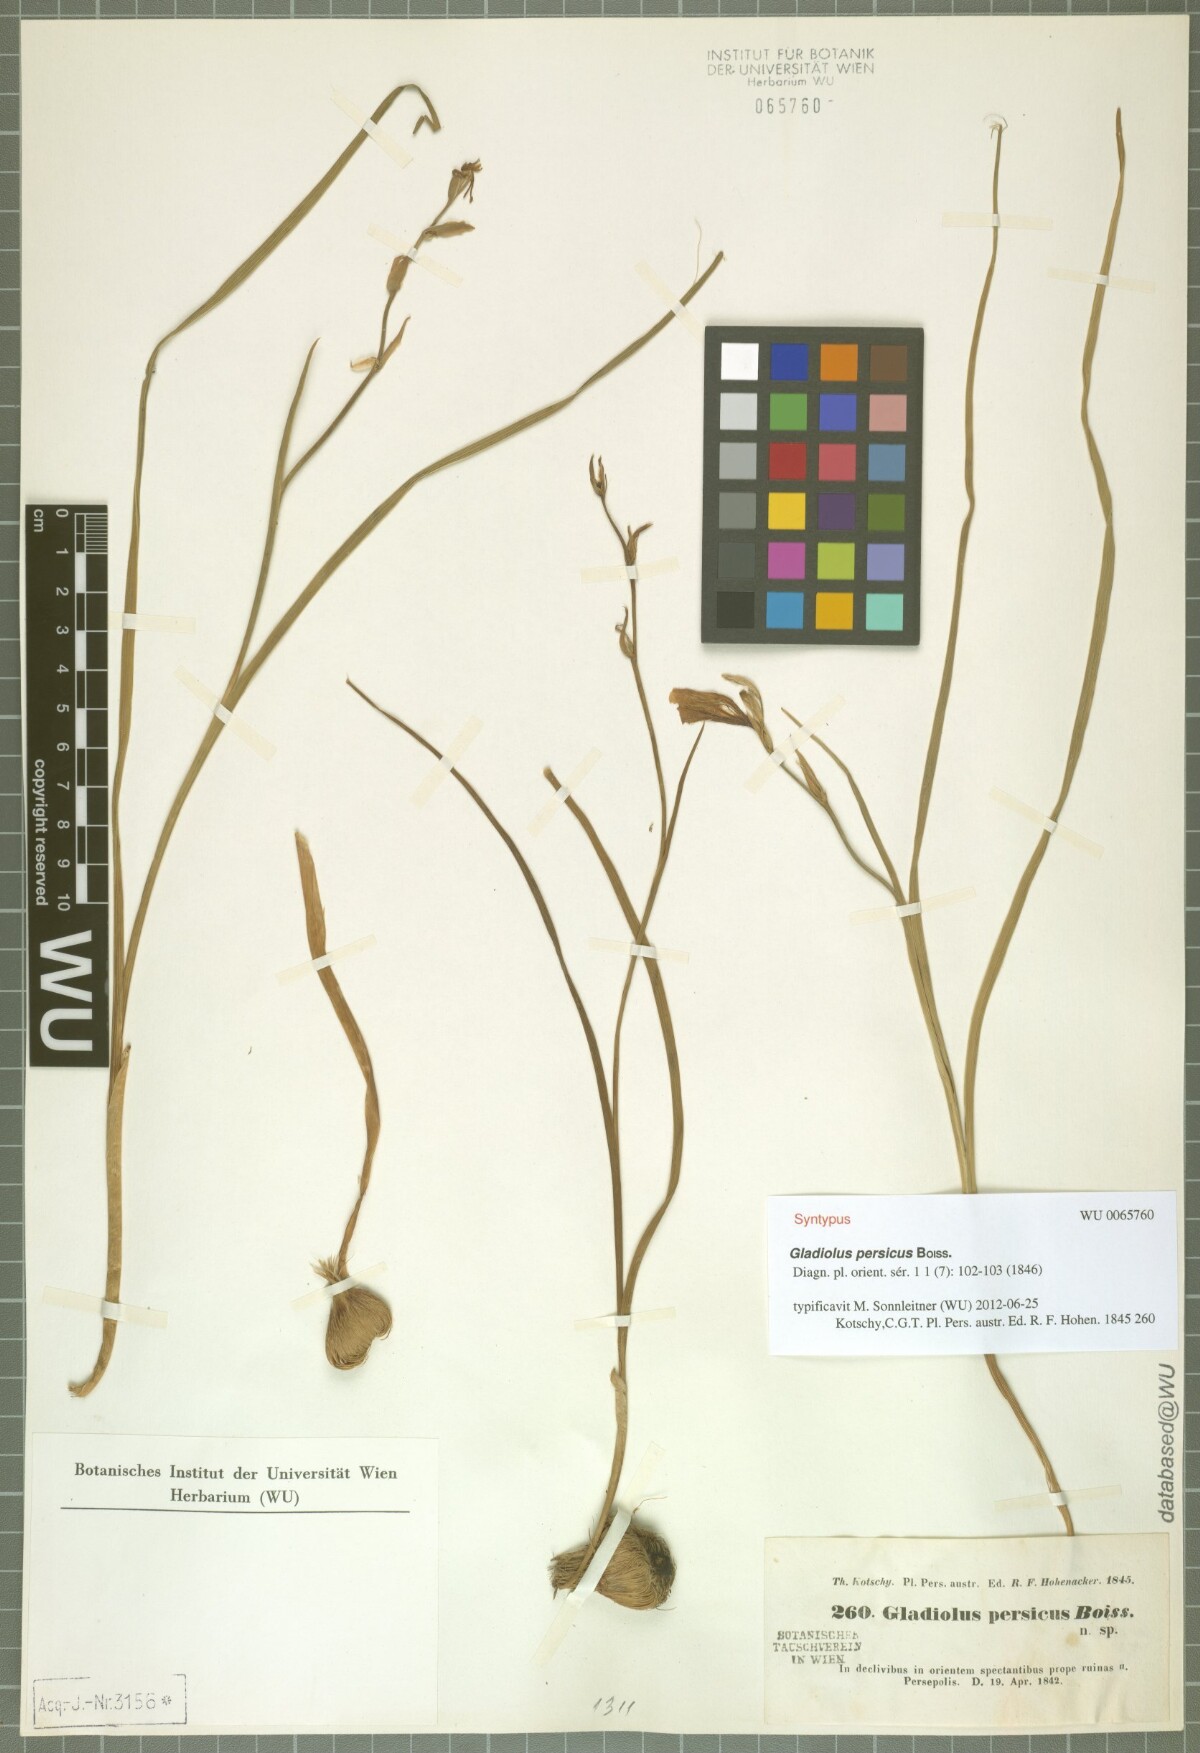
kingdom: Plantae
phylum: Tracheophyta
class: Liliopsida
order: Asparagales
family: Iridaceae
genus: Gladiolus
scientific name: Gladiolus persicus
